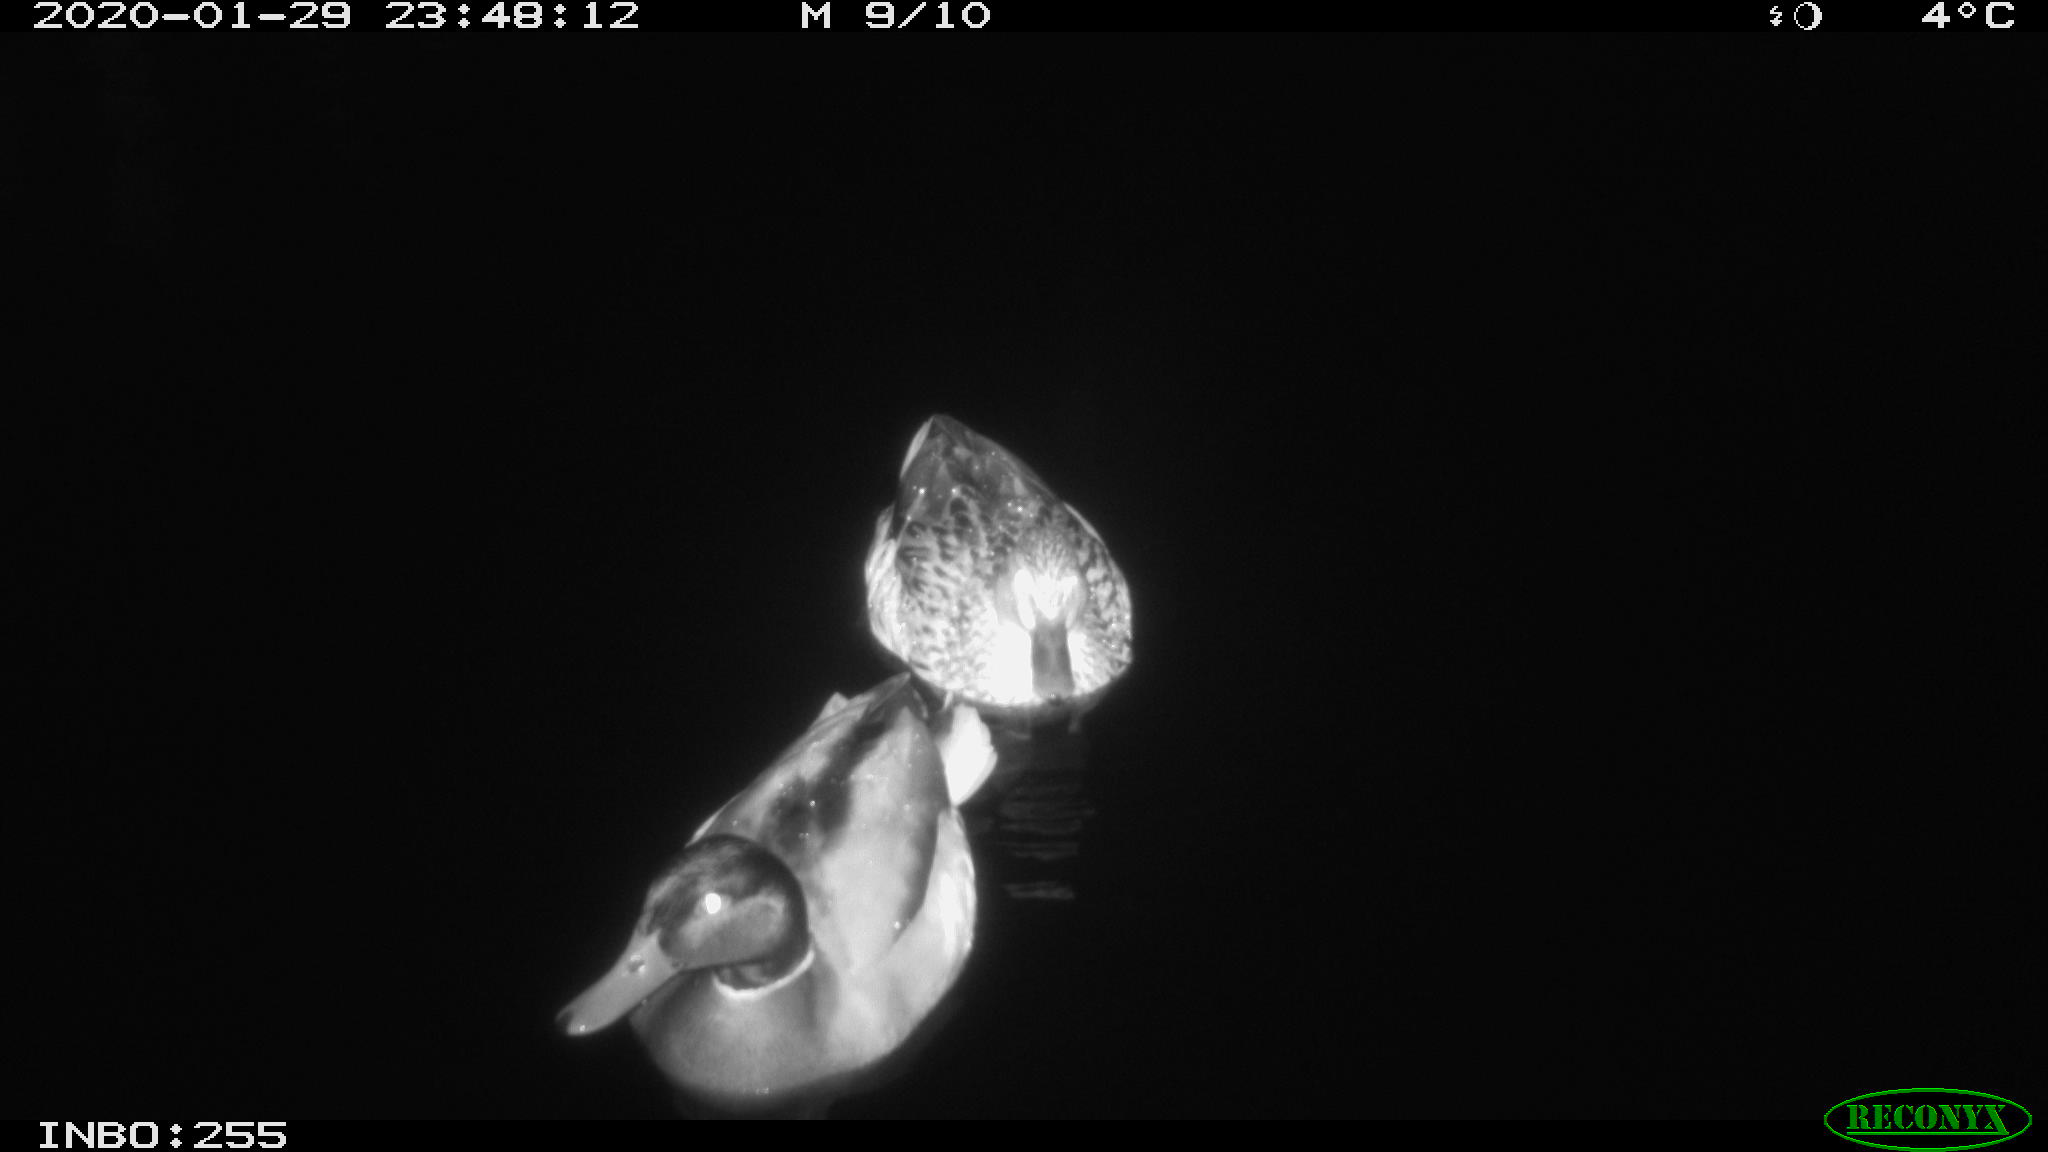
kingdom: Animalia
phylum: Chordata
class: Aves
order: Anseriformes
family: Anatidae
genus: Anas
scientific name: Anas platyrhynchos
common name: Mallard
